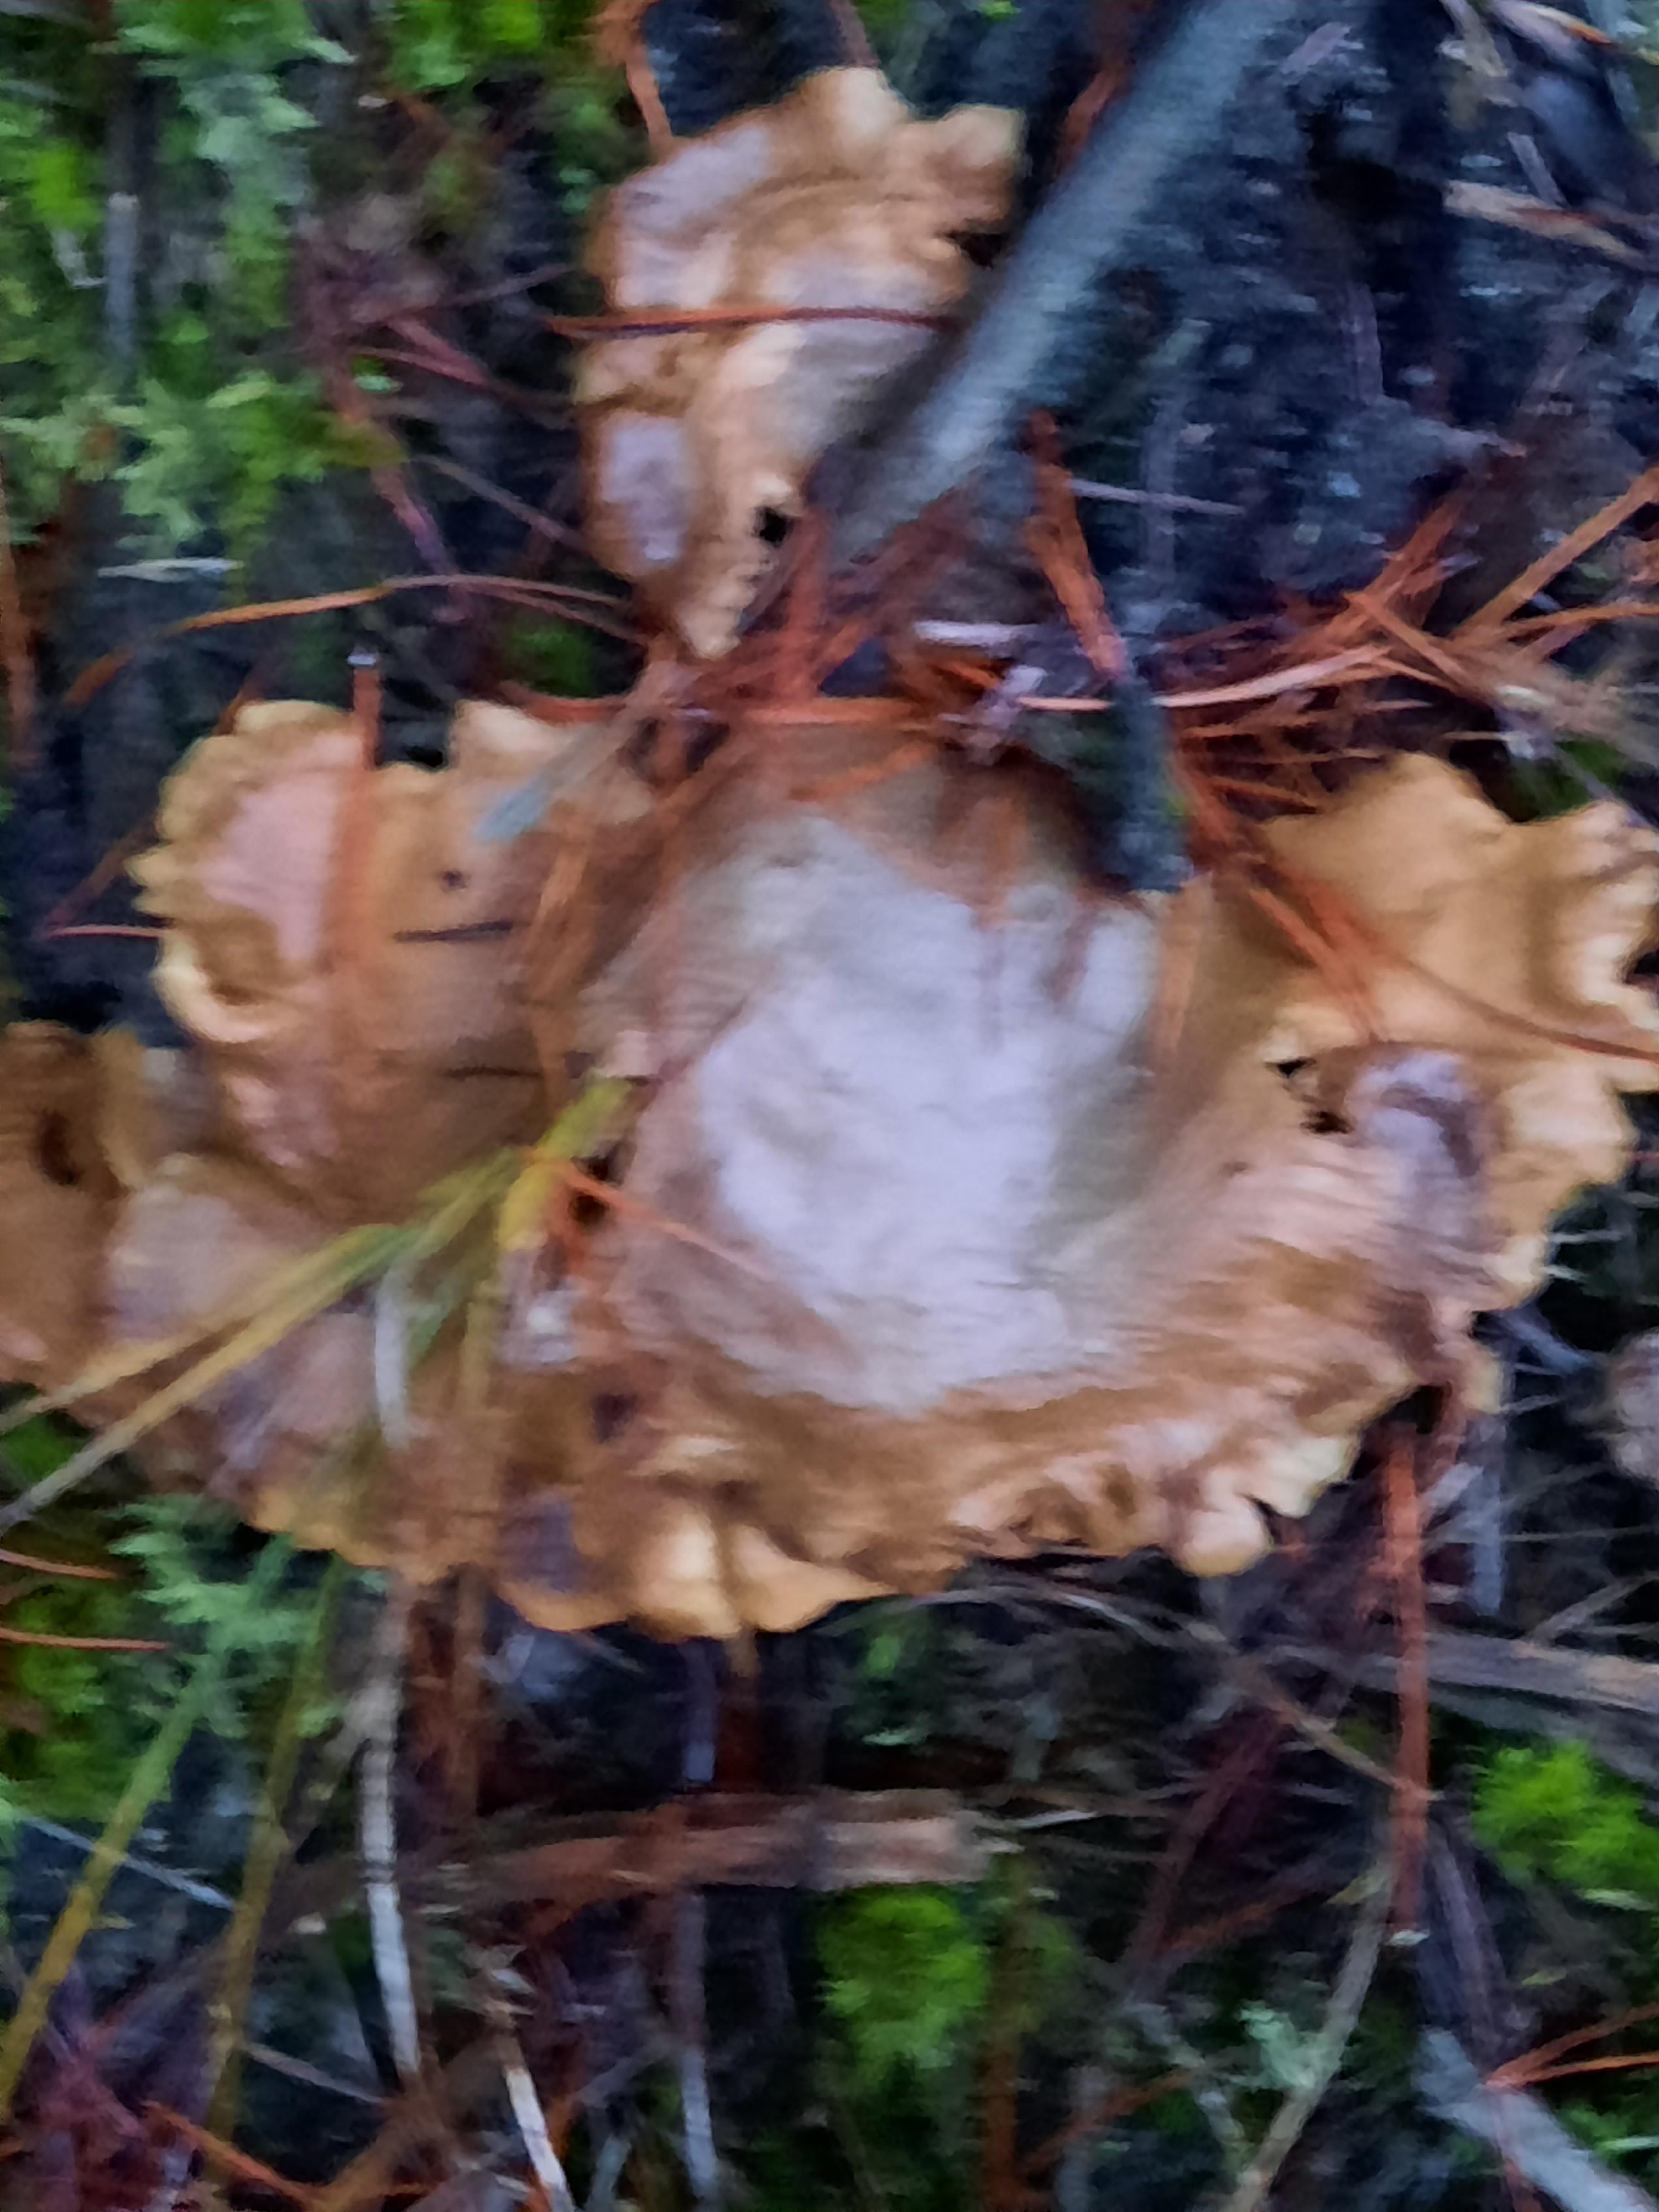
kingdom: Fungi
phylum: Basidiomycota
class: Agaricomycetes
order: Boletales
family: Tapinellaceae
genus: Tapinella
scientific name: Tapinella panuoides
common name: tømmer-viftesvamp
